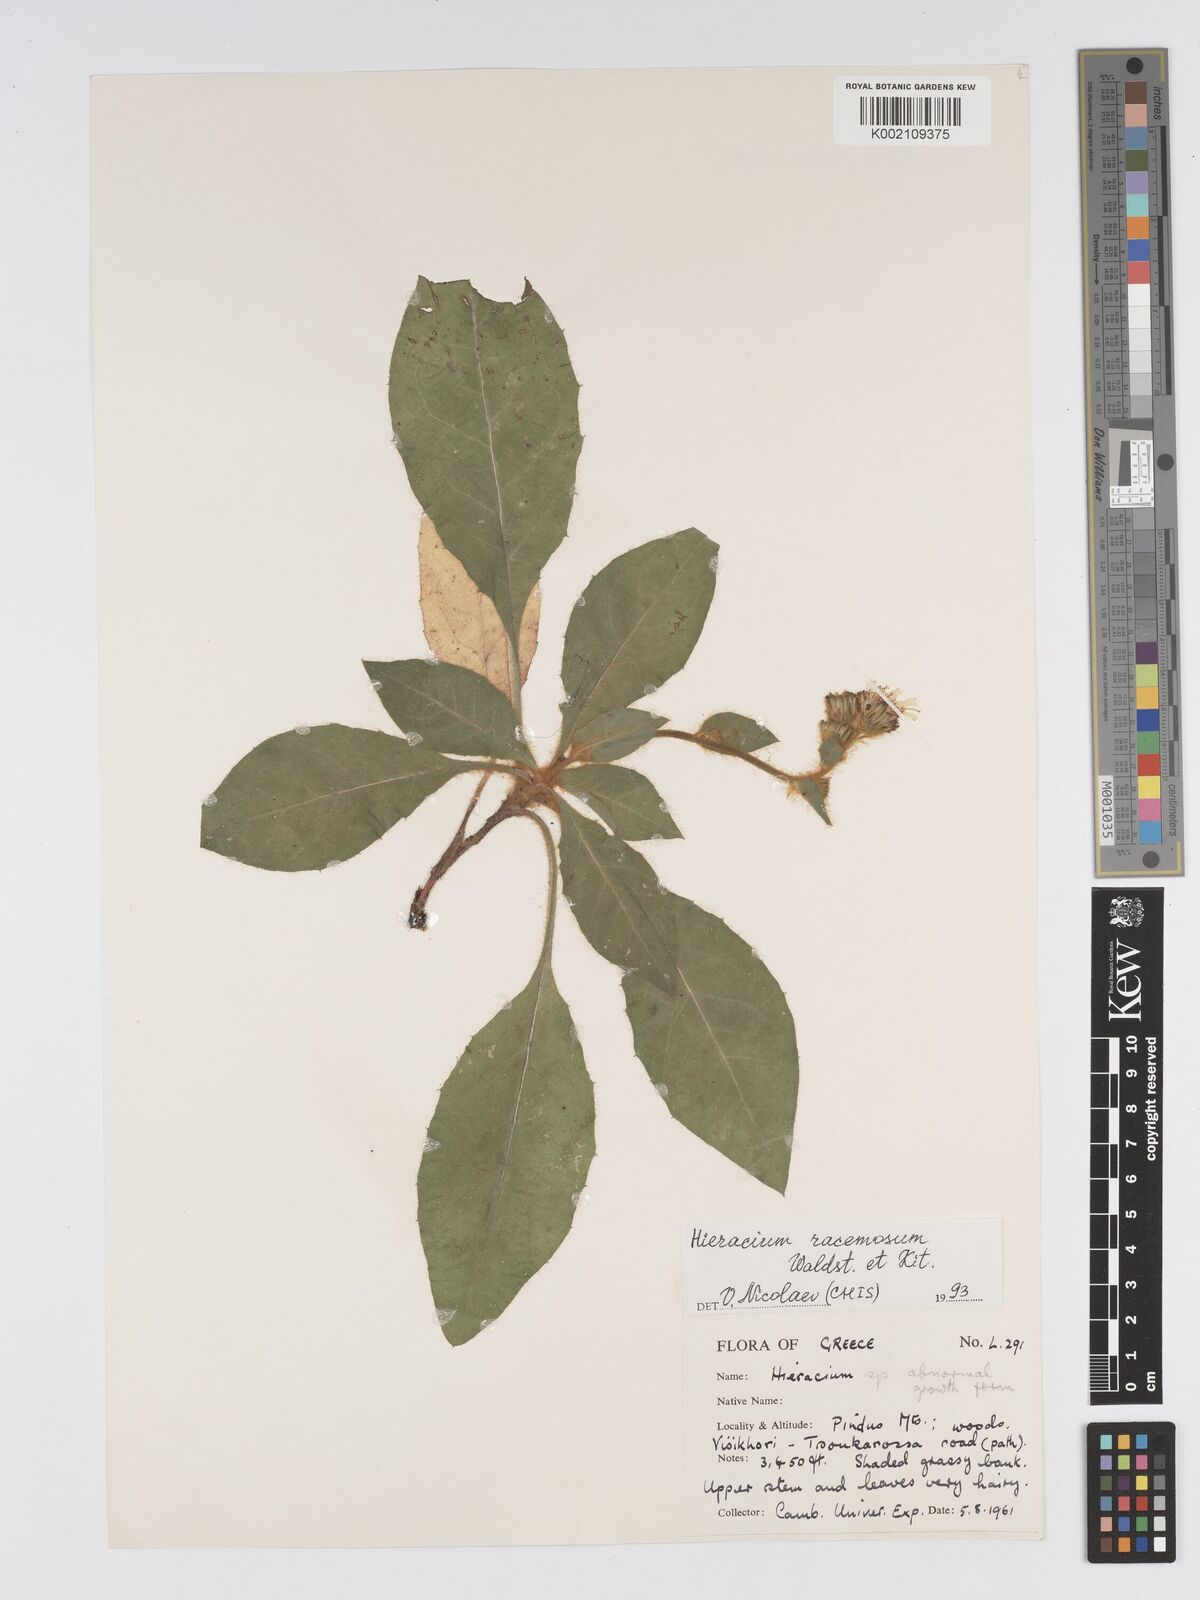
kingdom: Plantae
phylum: Tracheophyta
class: Magnoliopsida
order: Asterales
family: Asteraceae
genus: Hieracium
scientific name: Hieracium racemosum
